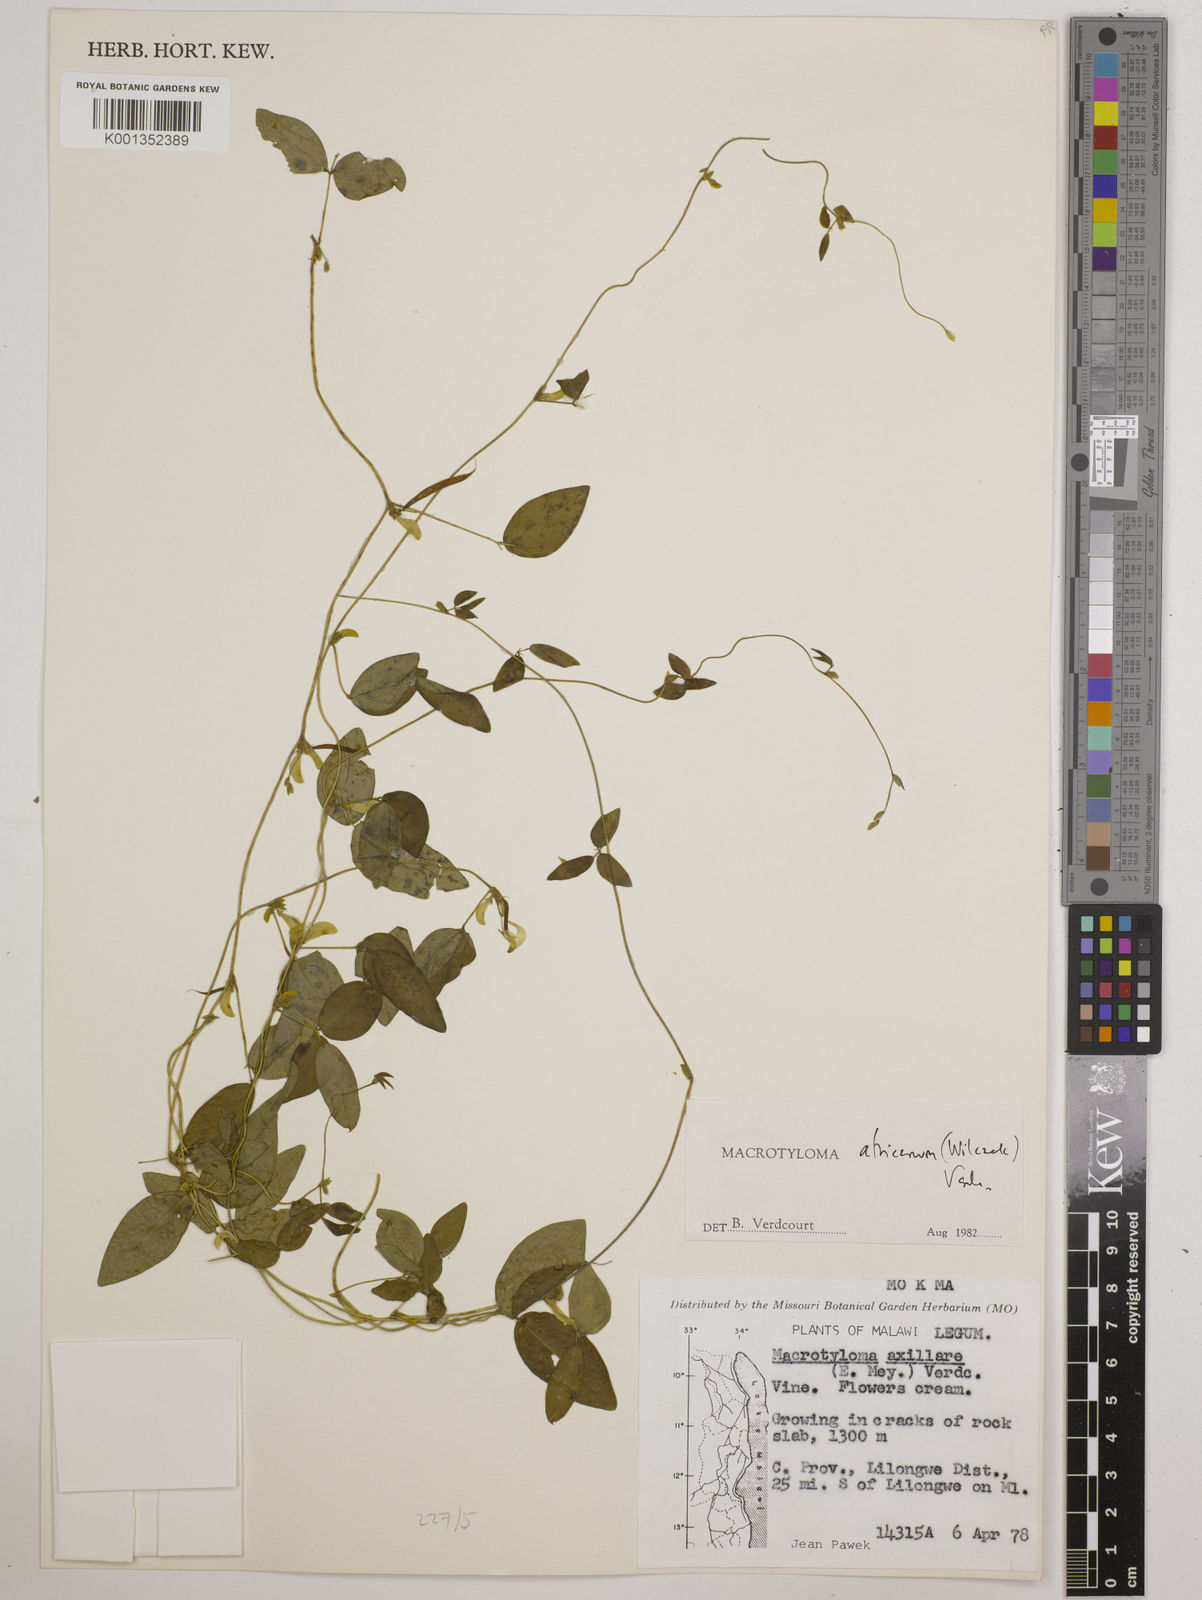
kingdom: Plantae
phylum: Tracheophyta
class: Magnoliopsida
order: Fabales
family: Fabaceae
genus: Macrotyloma
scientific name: Macrotyloma africanum
